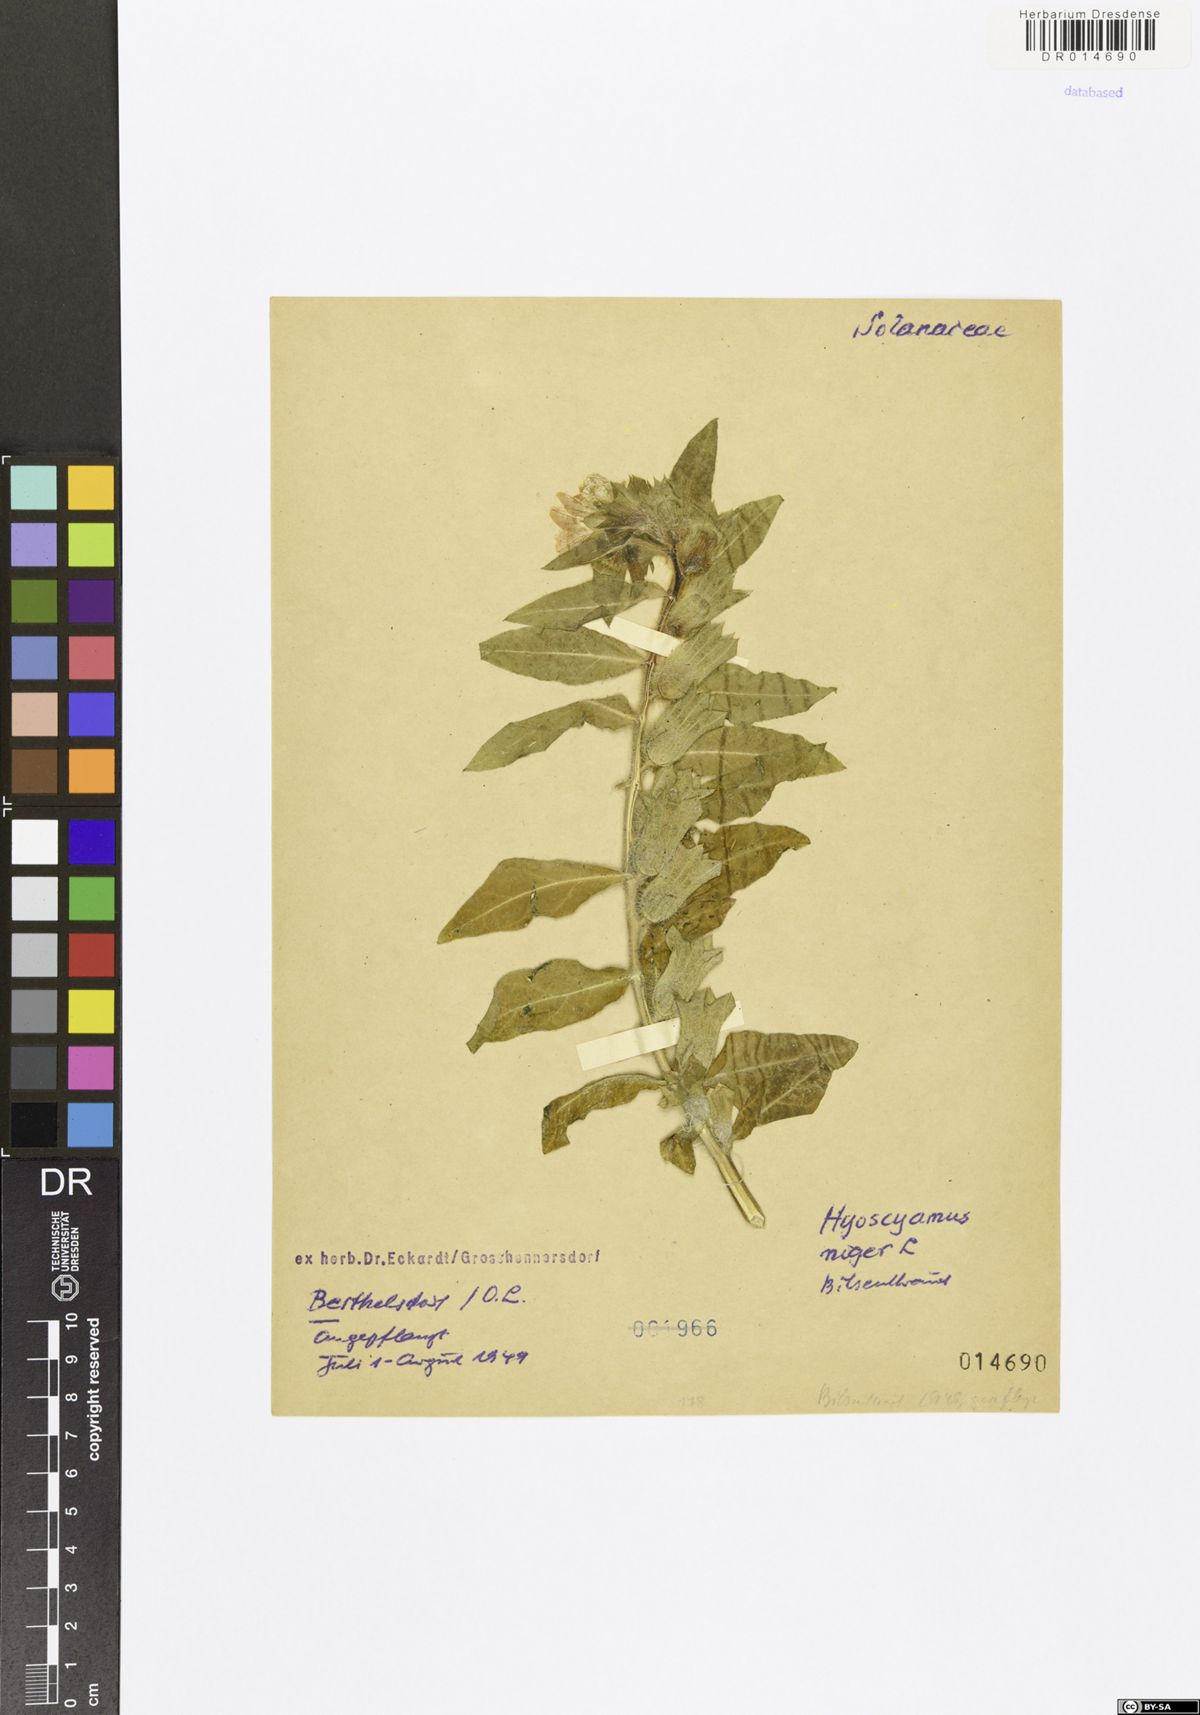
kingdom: Plantae
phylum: Tracheophyta
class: Magnoliopsida
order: Solanales
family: Solanaceae
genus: Hyoscyamus
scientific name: Hyoscyamus niger
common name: Henbane
